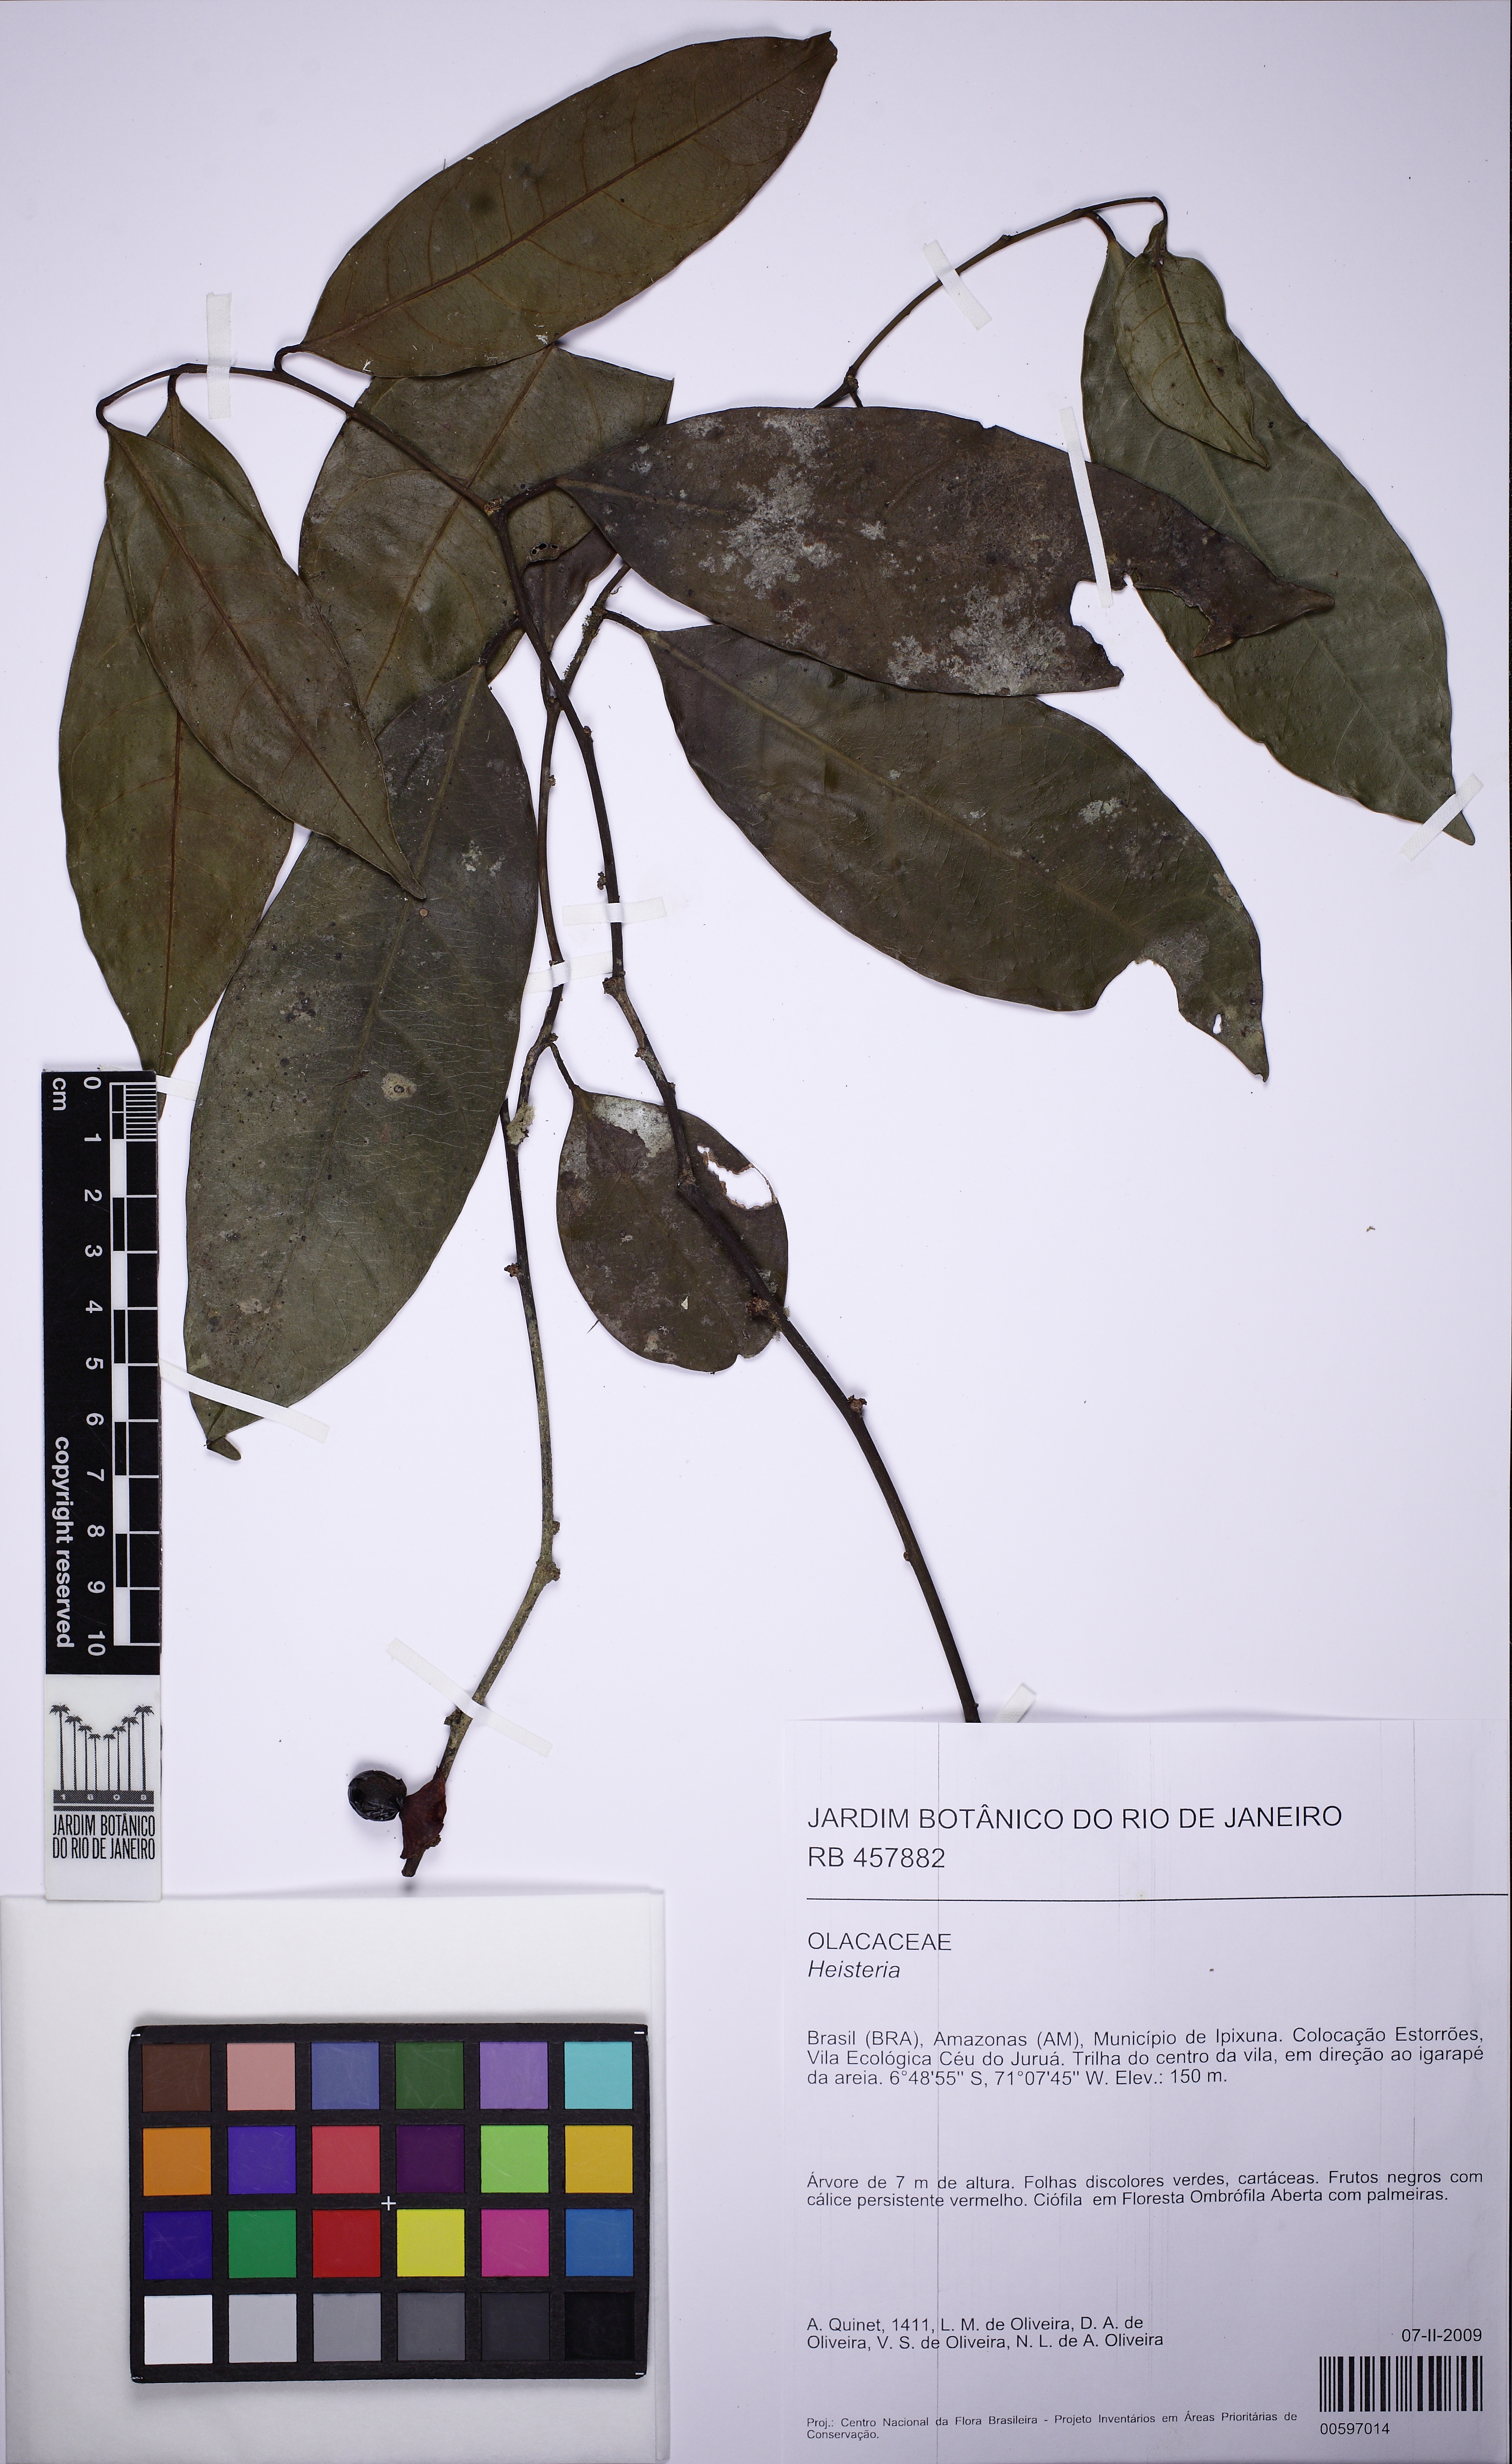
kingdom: Plantae
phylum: Tracheophyta
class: Magnoliopsida
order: Santalales
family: Erythropalaceae
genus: Heisteria
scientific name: Heisteria acuminata
